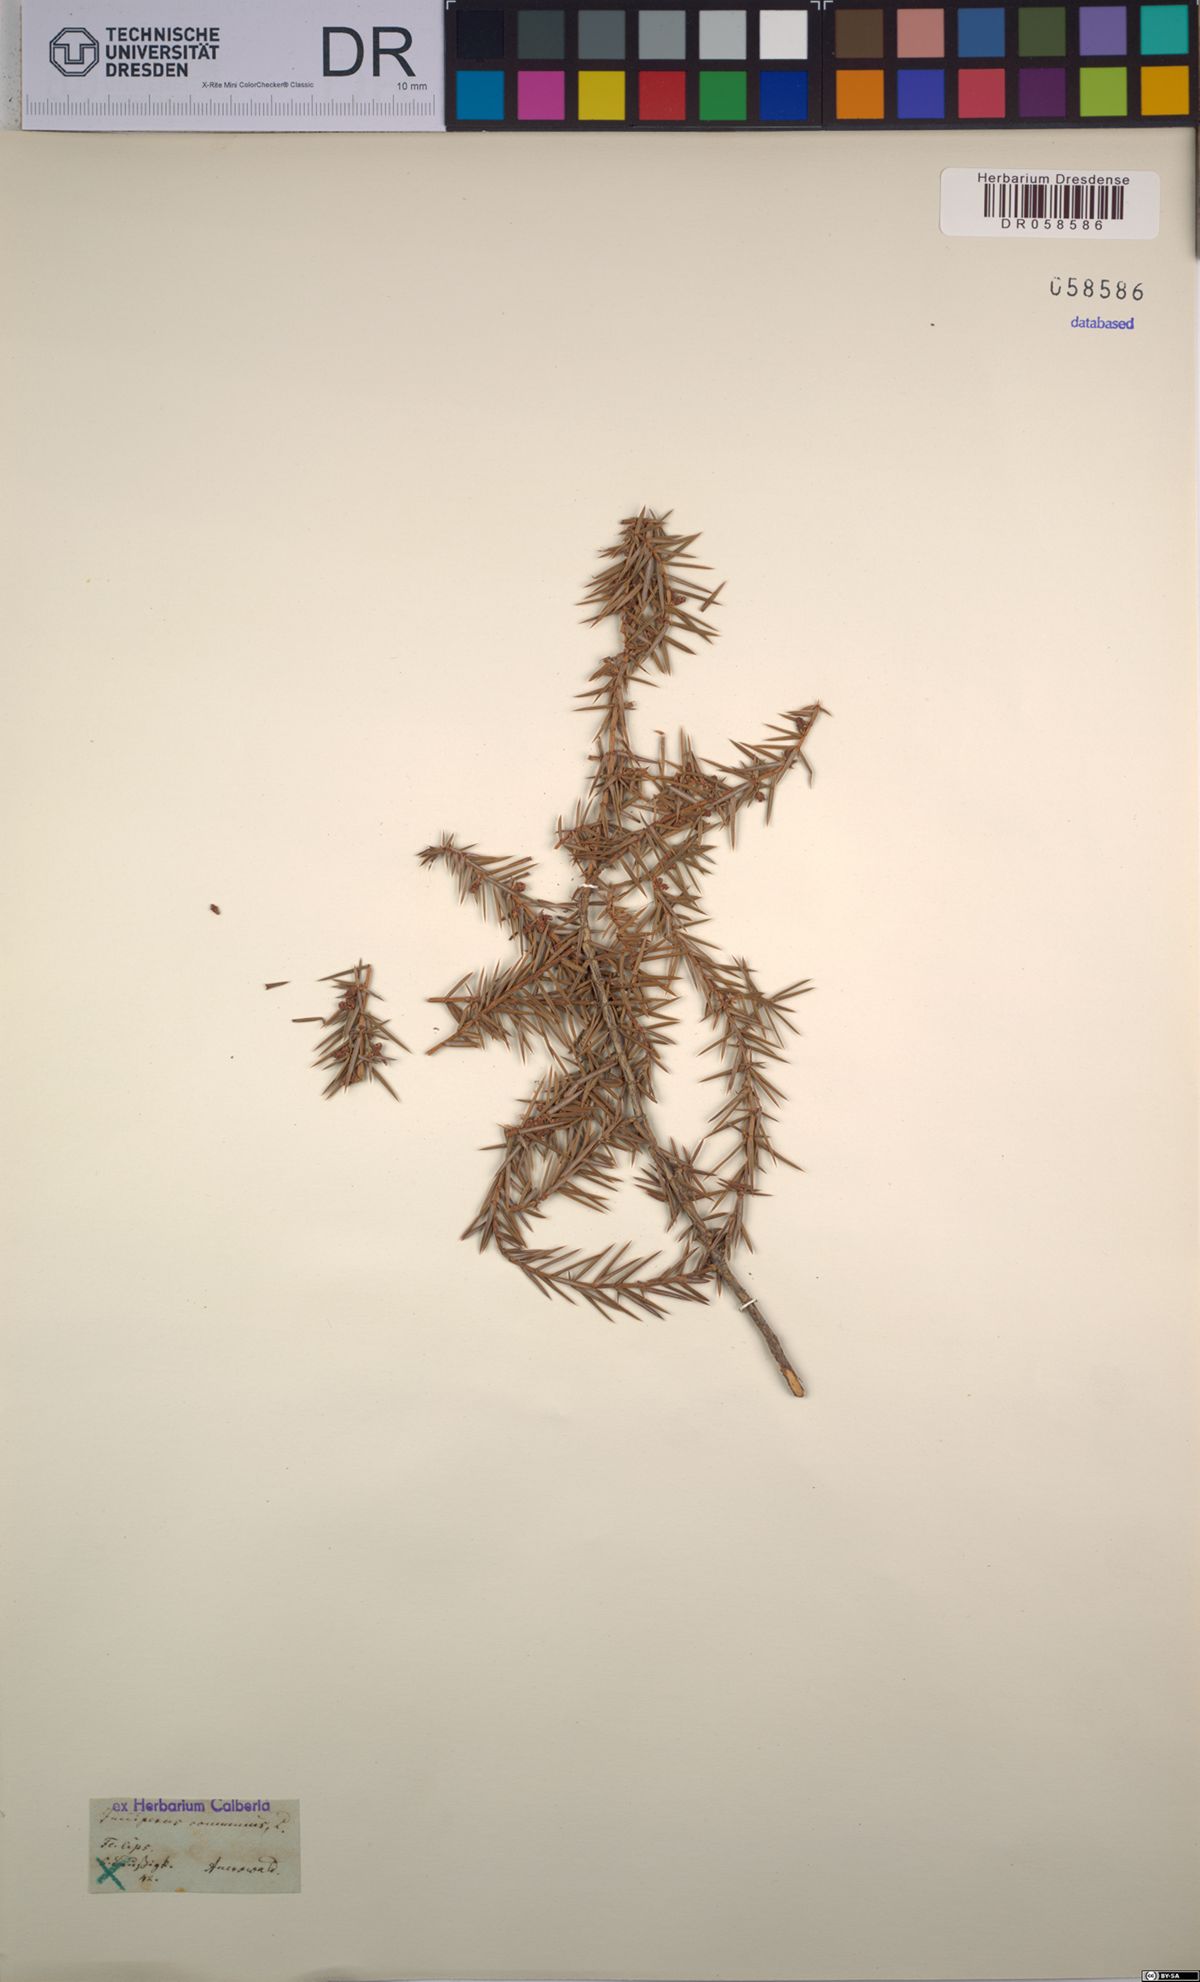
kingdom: Plantae
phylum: Tracheophyta
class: Pinopsida
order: Pinales
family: Cupressaceae
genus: Juniperus
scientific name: Juniperus communis
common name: Common juniper
